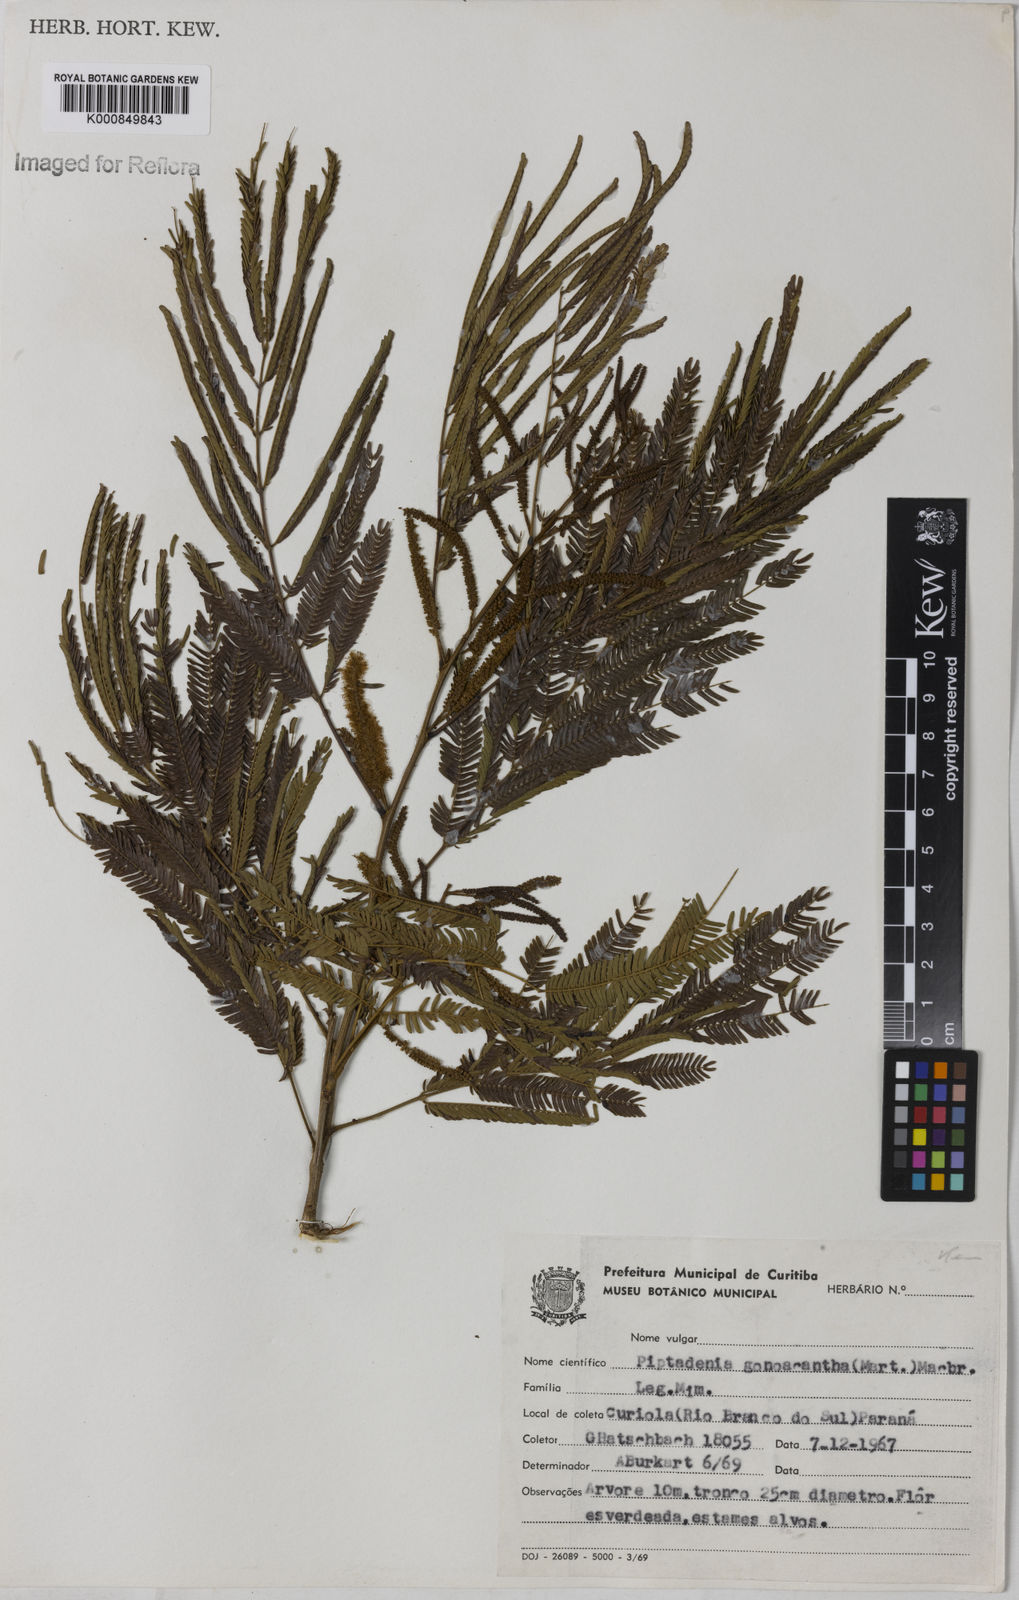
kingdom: Plantae
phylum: Tracheophyta
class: Magnoliopsida
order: Fabales
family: Fabaceae
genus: Piptadenia
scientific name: Piptadenia gonoacantha
